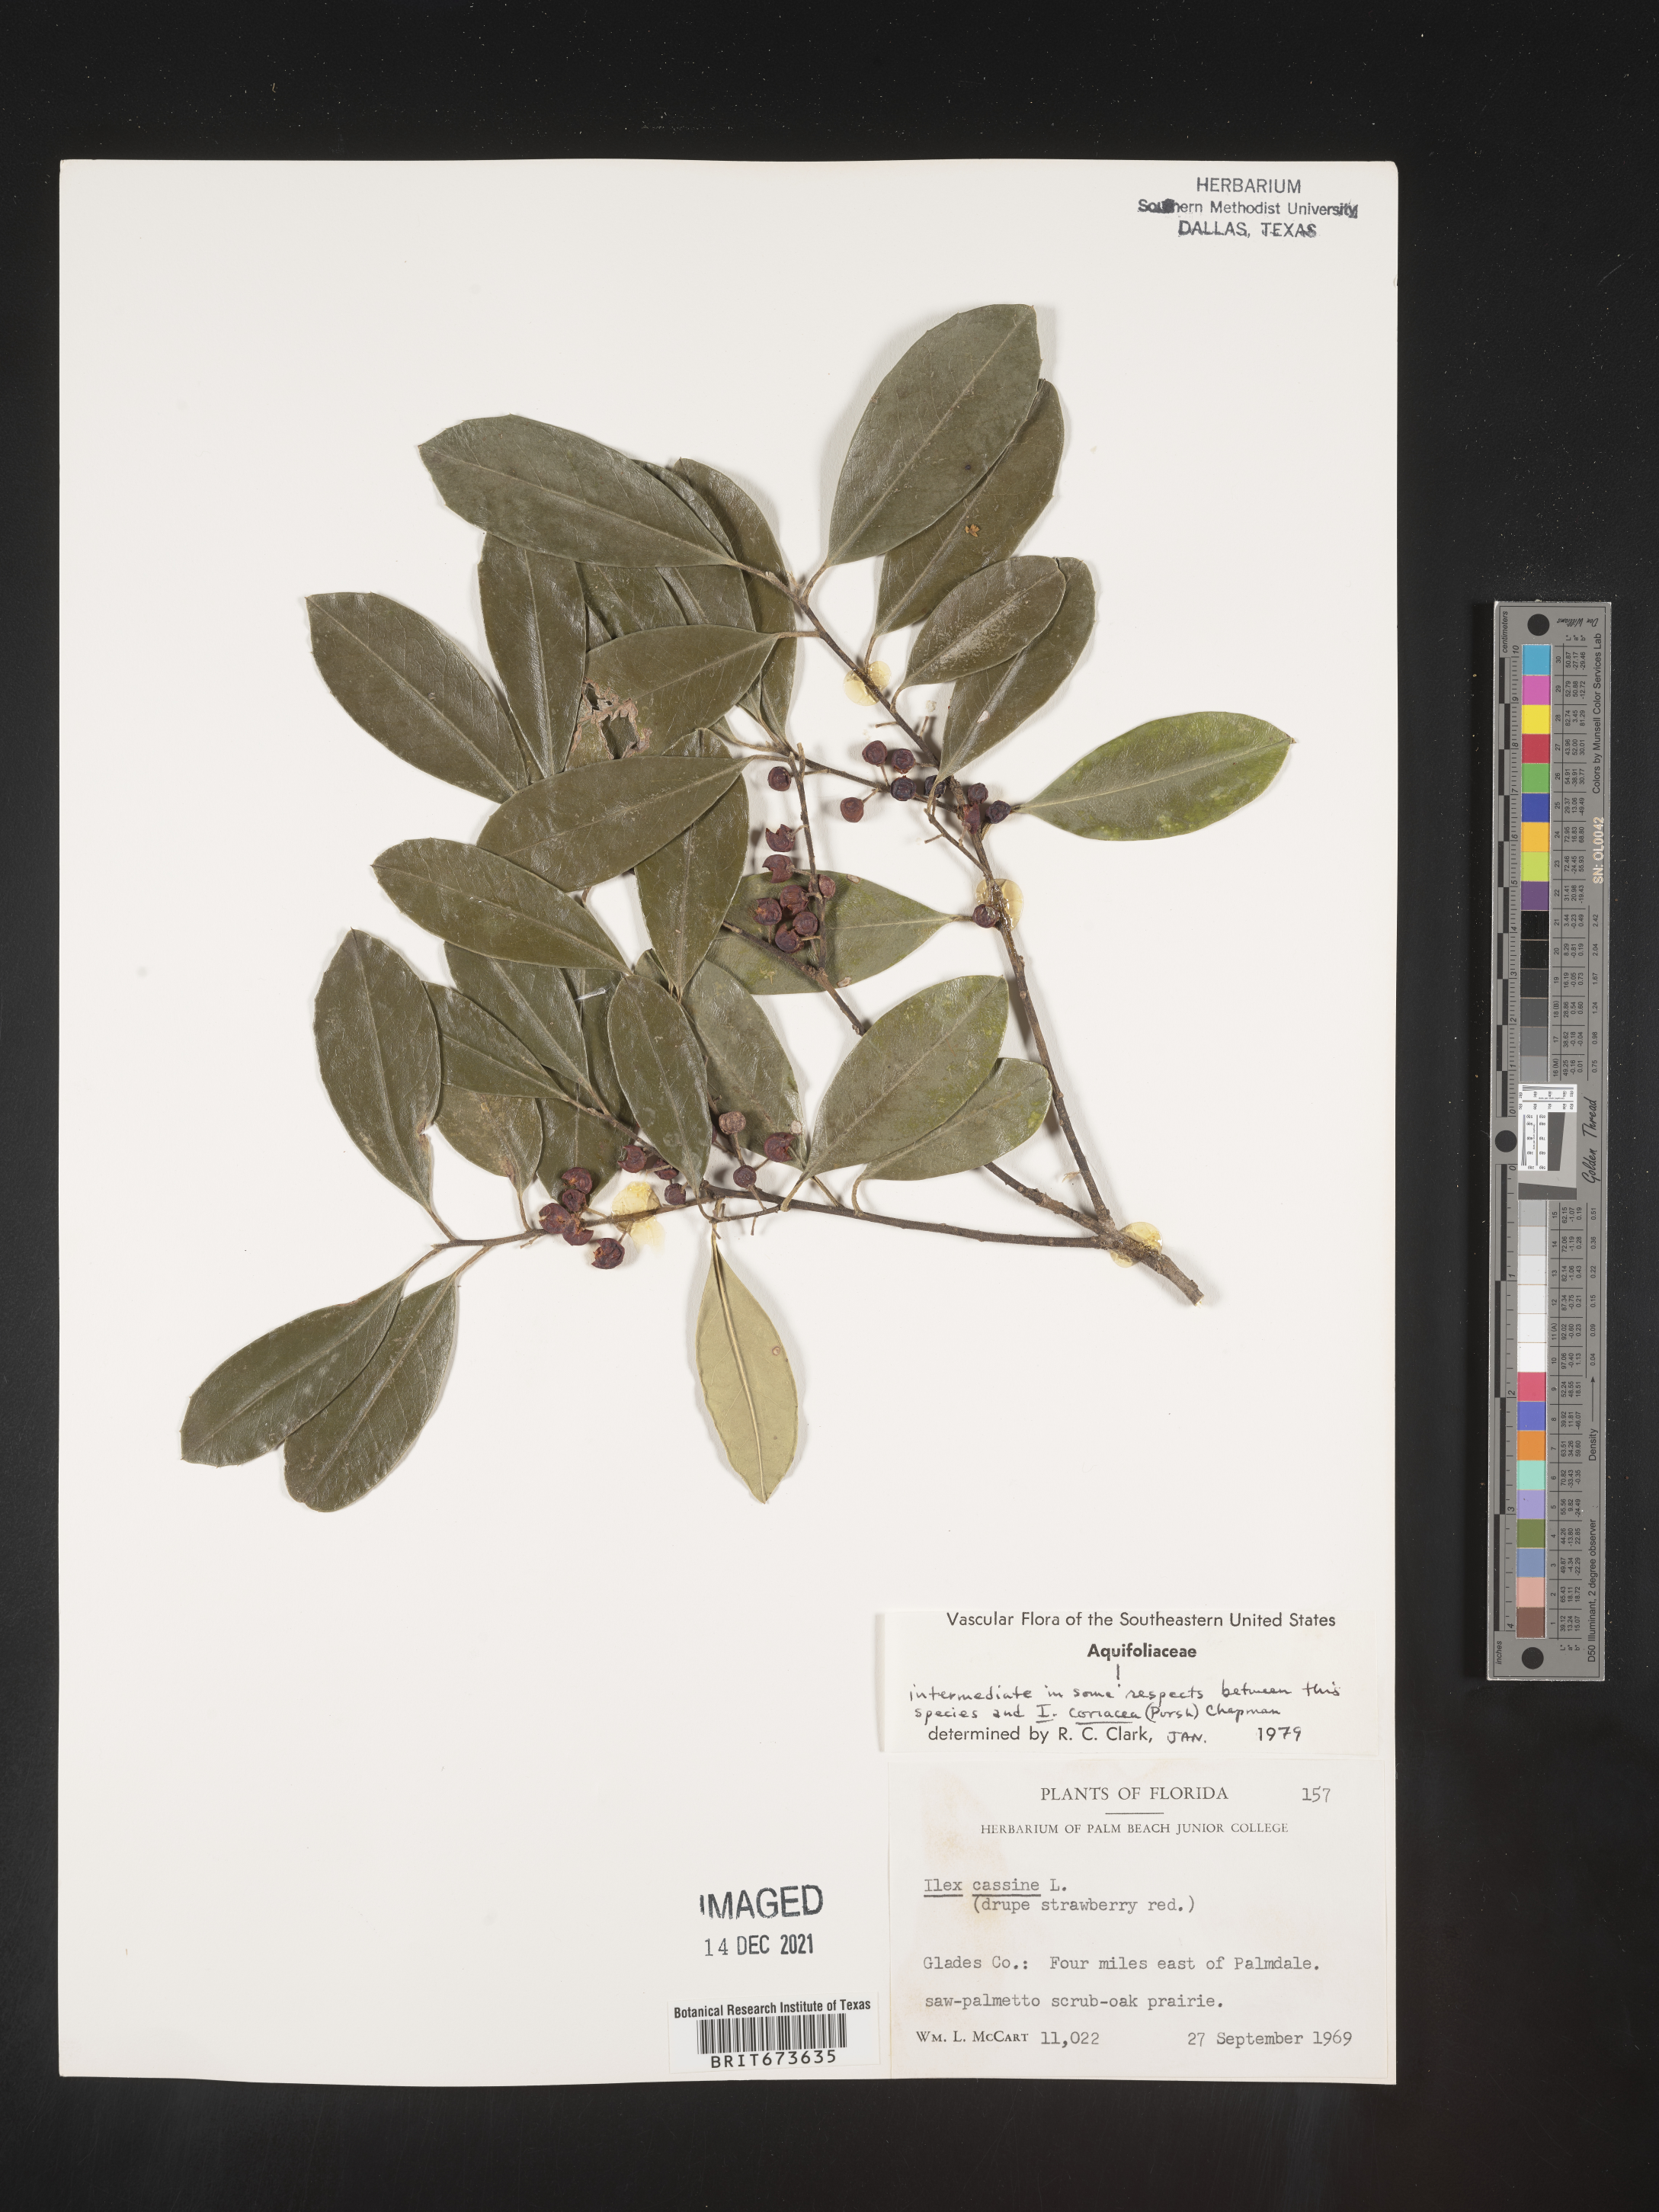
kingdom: Plantae
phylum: Tracheophyta
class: Magnoliopsida
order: Aquifoliales
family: Aquifoliaceae
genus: Ilex
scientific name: Ilex cassine
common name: Dahoon
